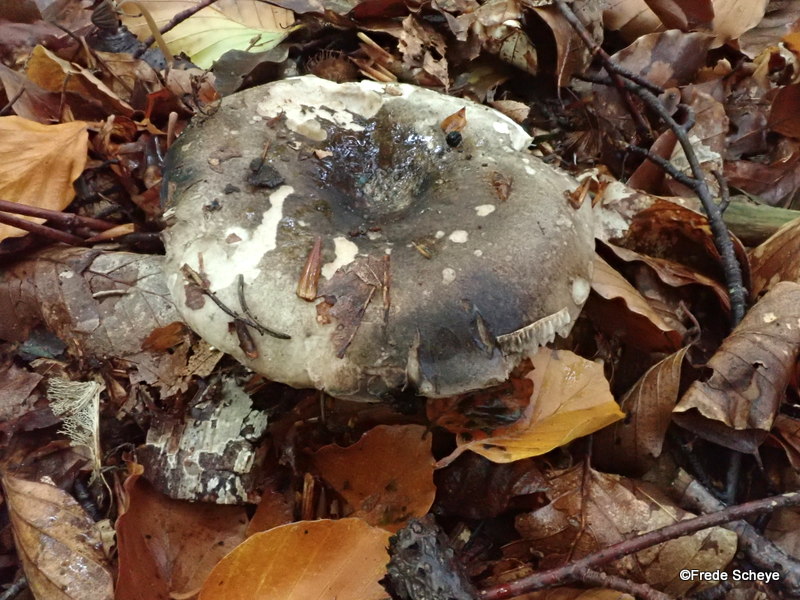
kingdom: Fungi
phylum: Basidiomycota
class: Agaricomycetes
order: Russulales
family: Russulaceae
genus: Russula
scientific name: Russula adusta
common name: sværtende skørhat
